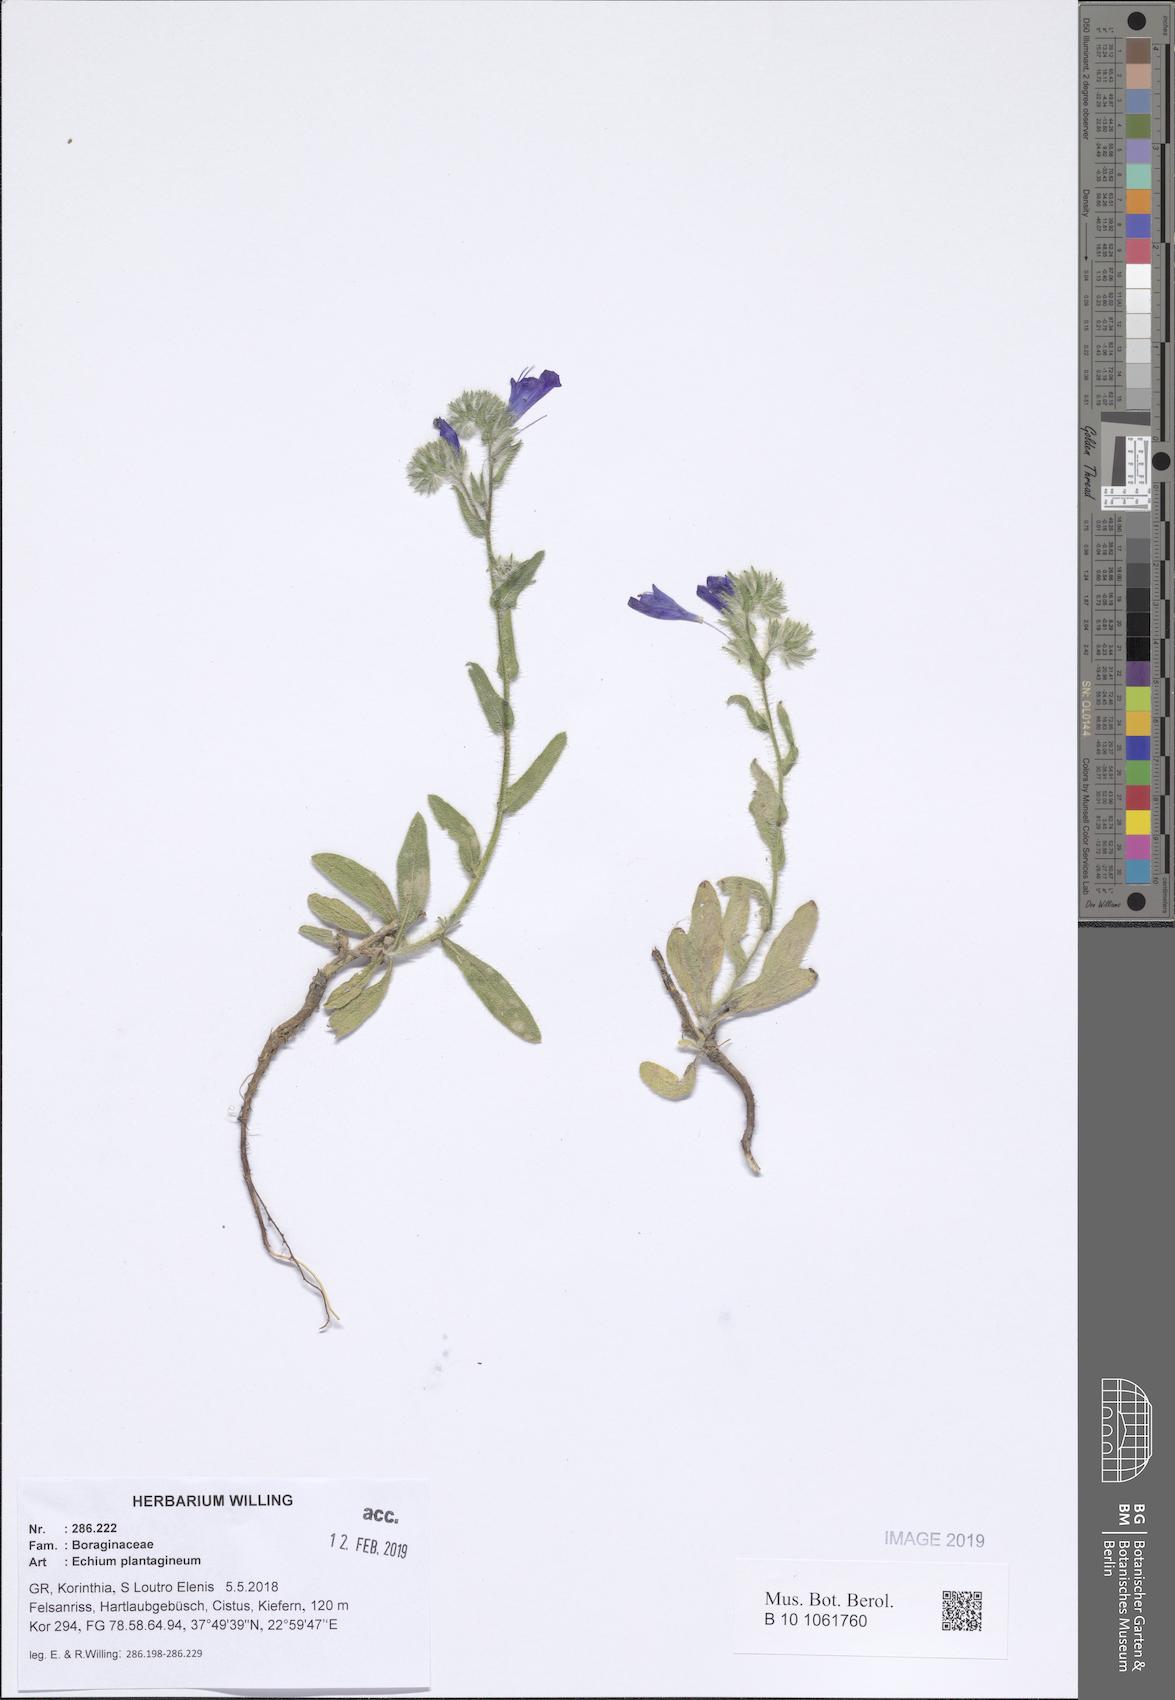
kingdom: Plantae
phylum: Tracheophyta
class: Magnoliopsida
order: Boraginales
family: Boraginaceae
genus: Echium
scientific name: Echium plantagineum
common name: Purple viper's-bugloss
